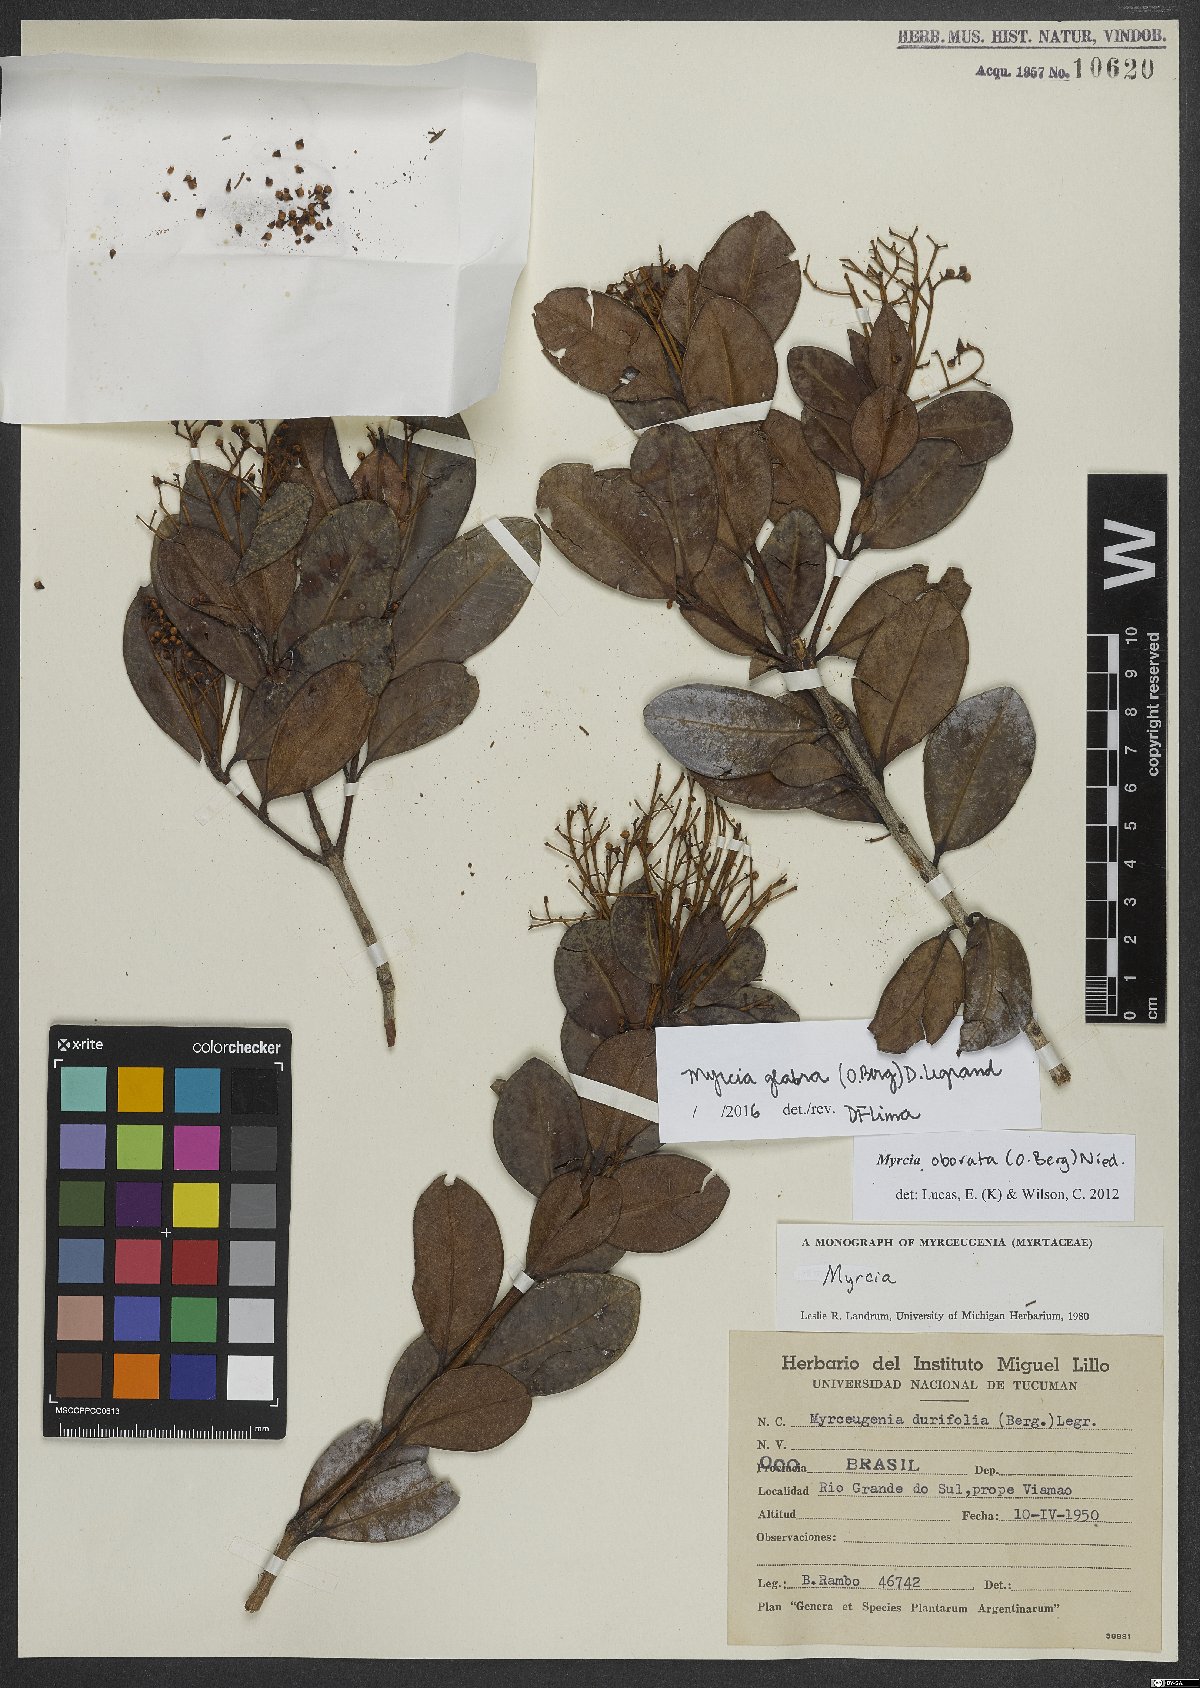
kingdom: Plantae
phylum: Tracheophyta
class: Magnoliopsida
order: Myrtales
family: Myrtaceae
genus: Myrcia
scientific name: Myrcia glabra
